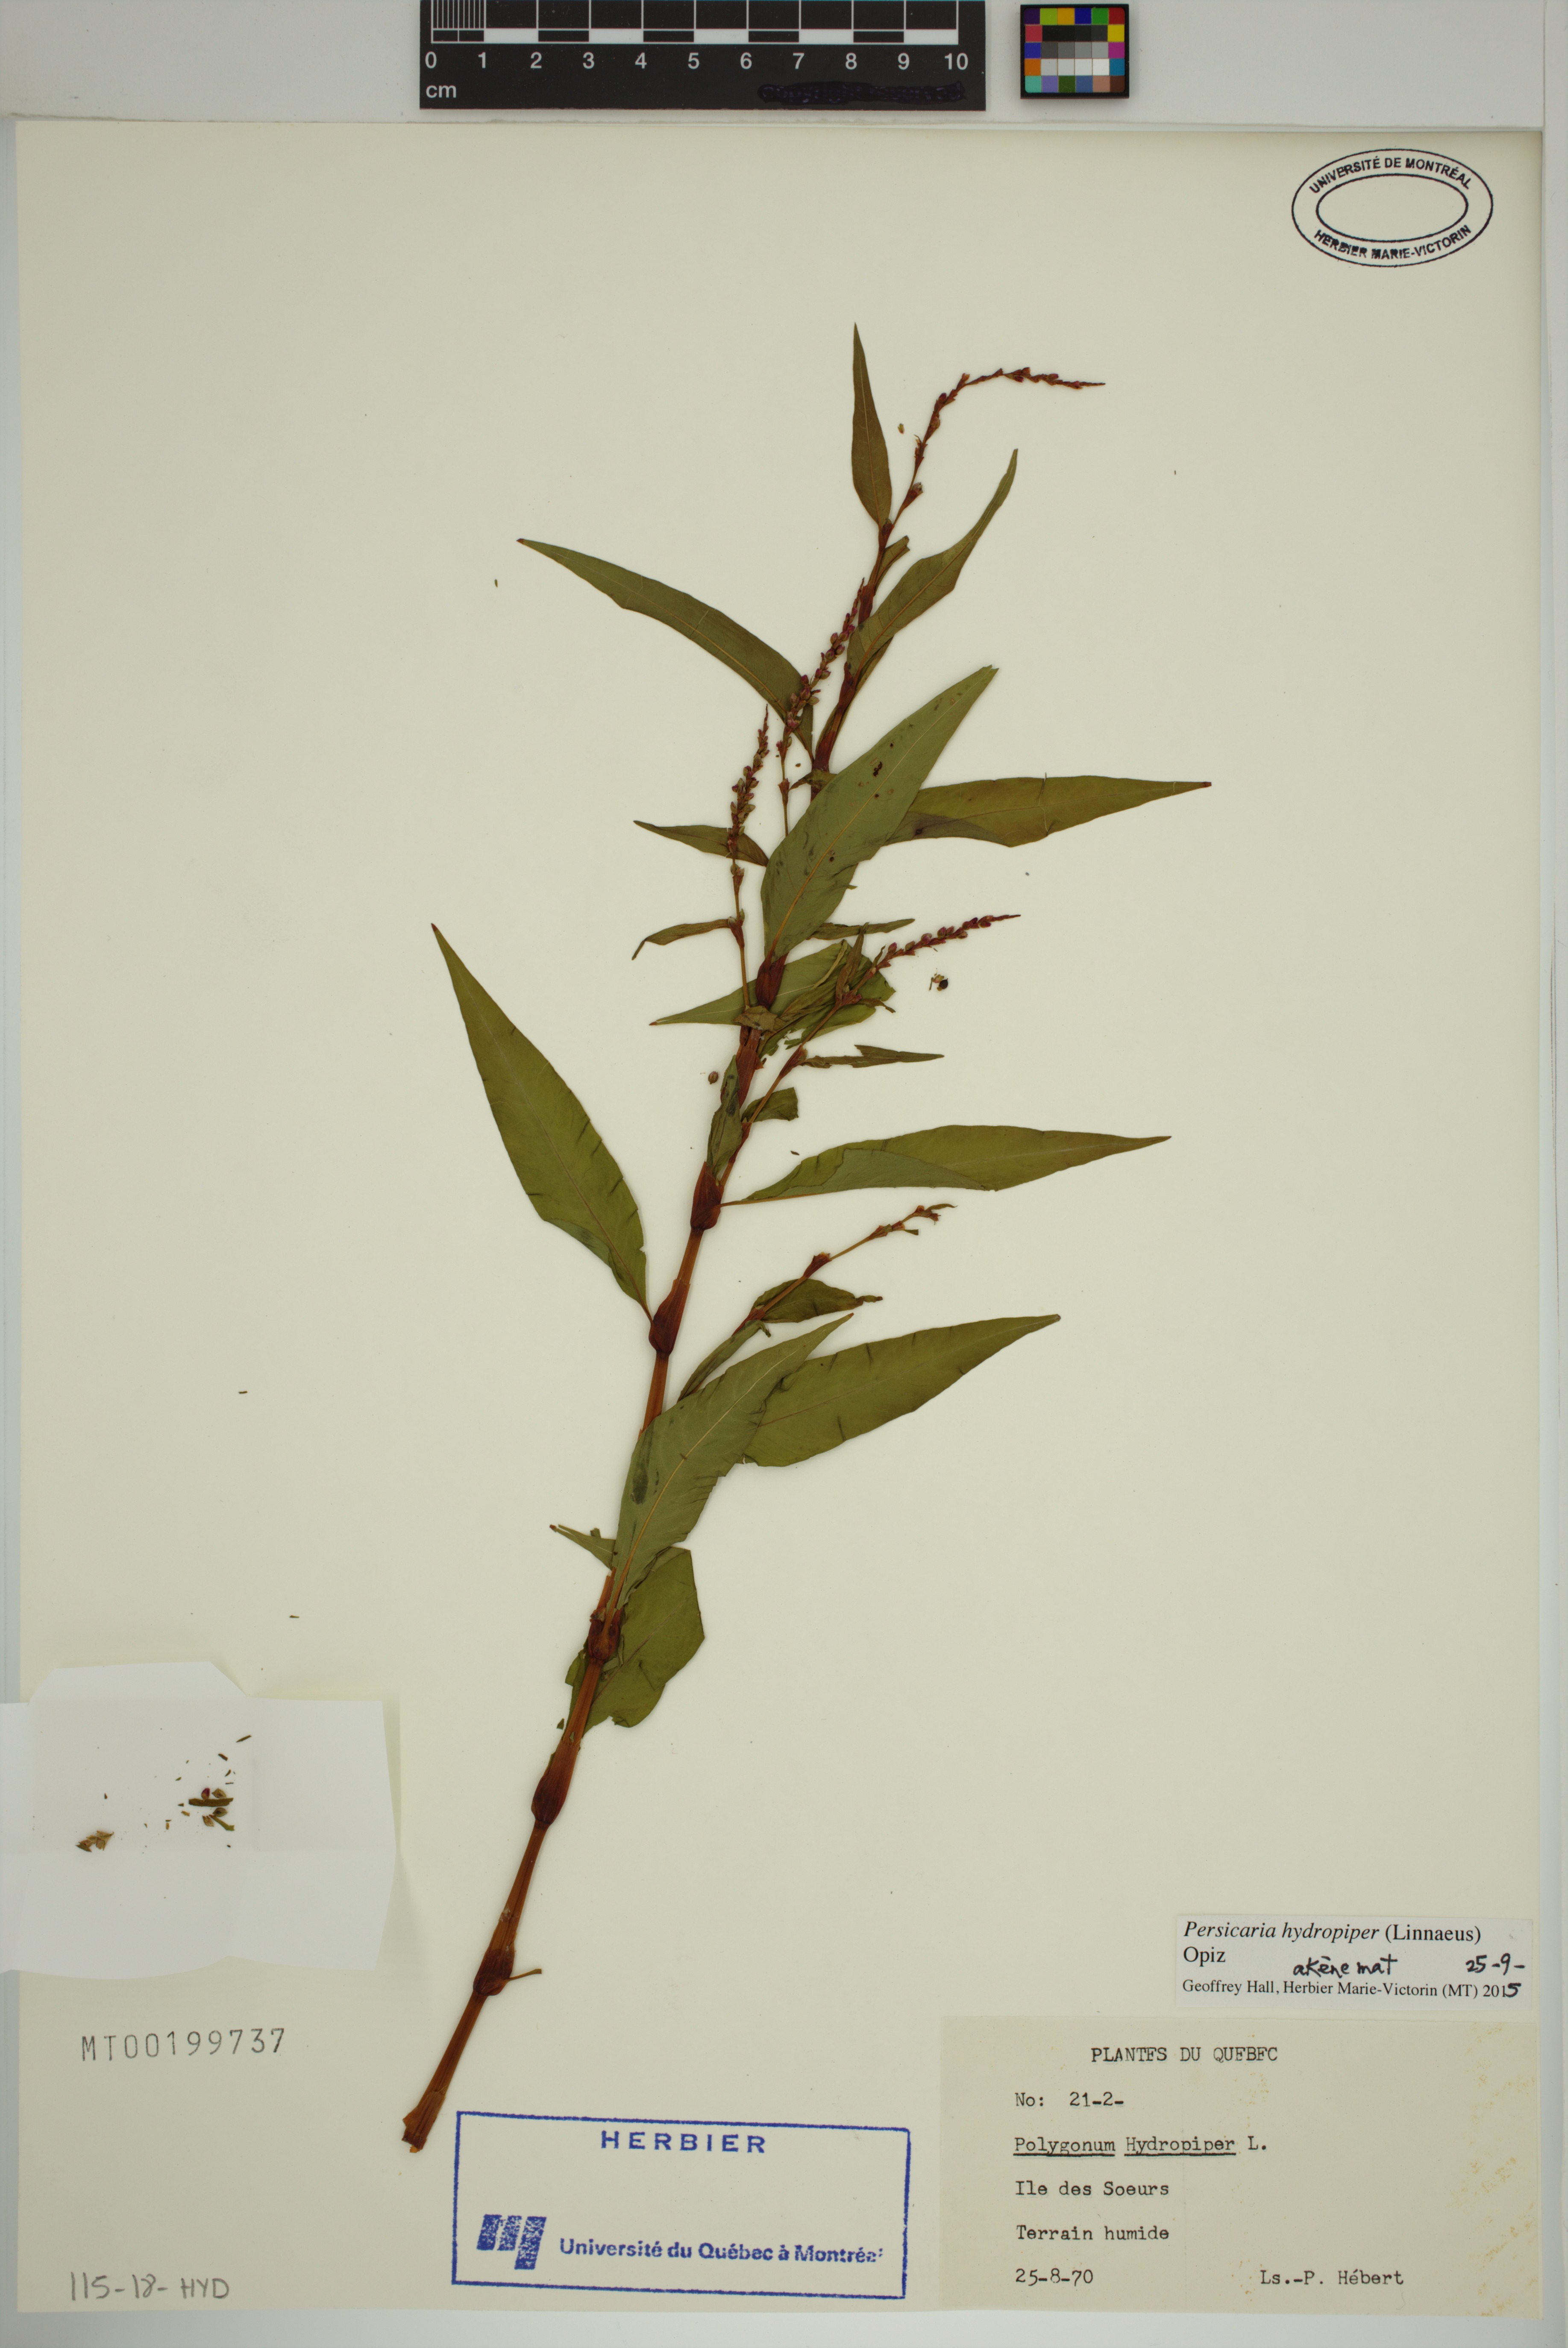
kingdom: Plantae
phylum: Tracheophyta
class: Magnoliopsida
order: Caryophyllales
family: Polygonaceae
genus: Persicaria
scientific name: Persicaria hydropiper
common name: Water-pepper
